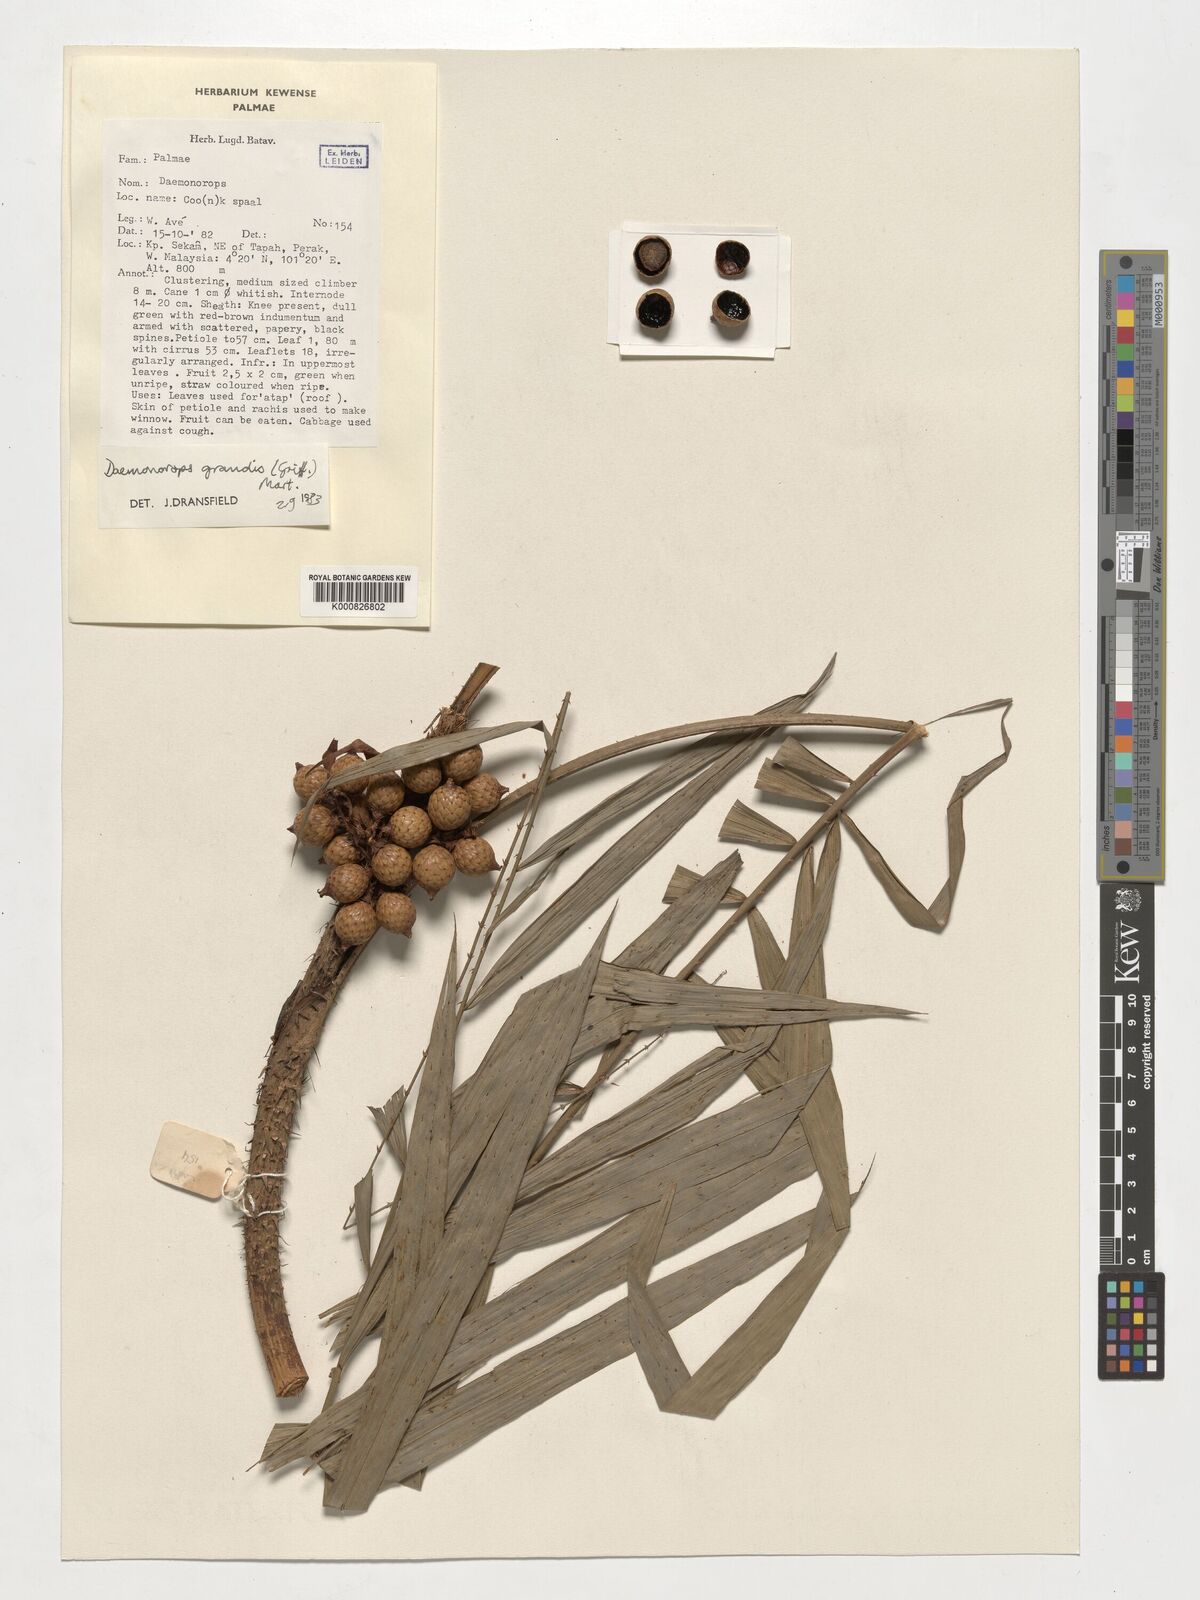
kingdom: Plantae
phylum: Tracheophyta
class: Liliopsida
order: Arecales
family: Arecaceae
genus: Calamus
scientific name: Calamus melanochaetes
